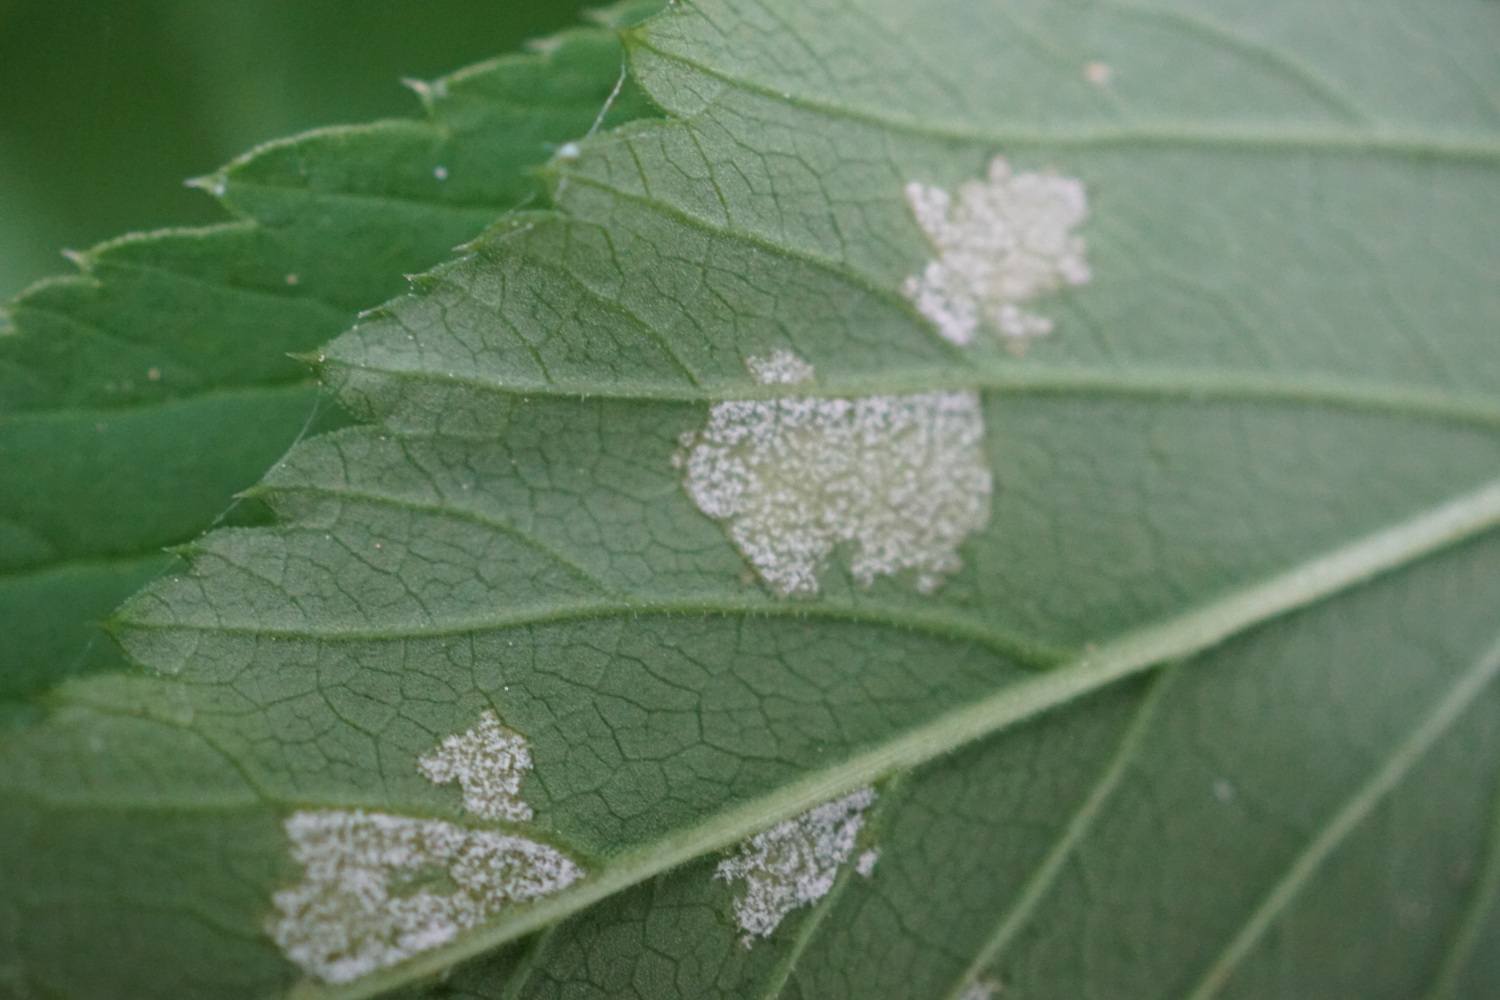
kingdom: Chromista
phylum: Oomycota
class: Peronosporea
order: Peronosporales
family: Peronosporaceae
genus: Peronospora
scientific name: Peronospora crustosa
